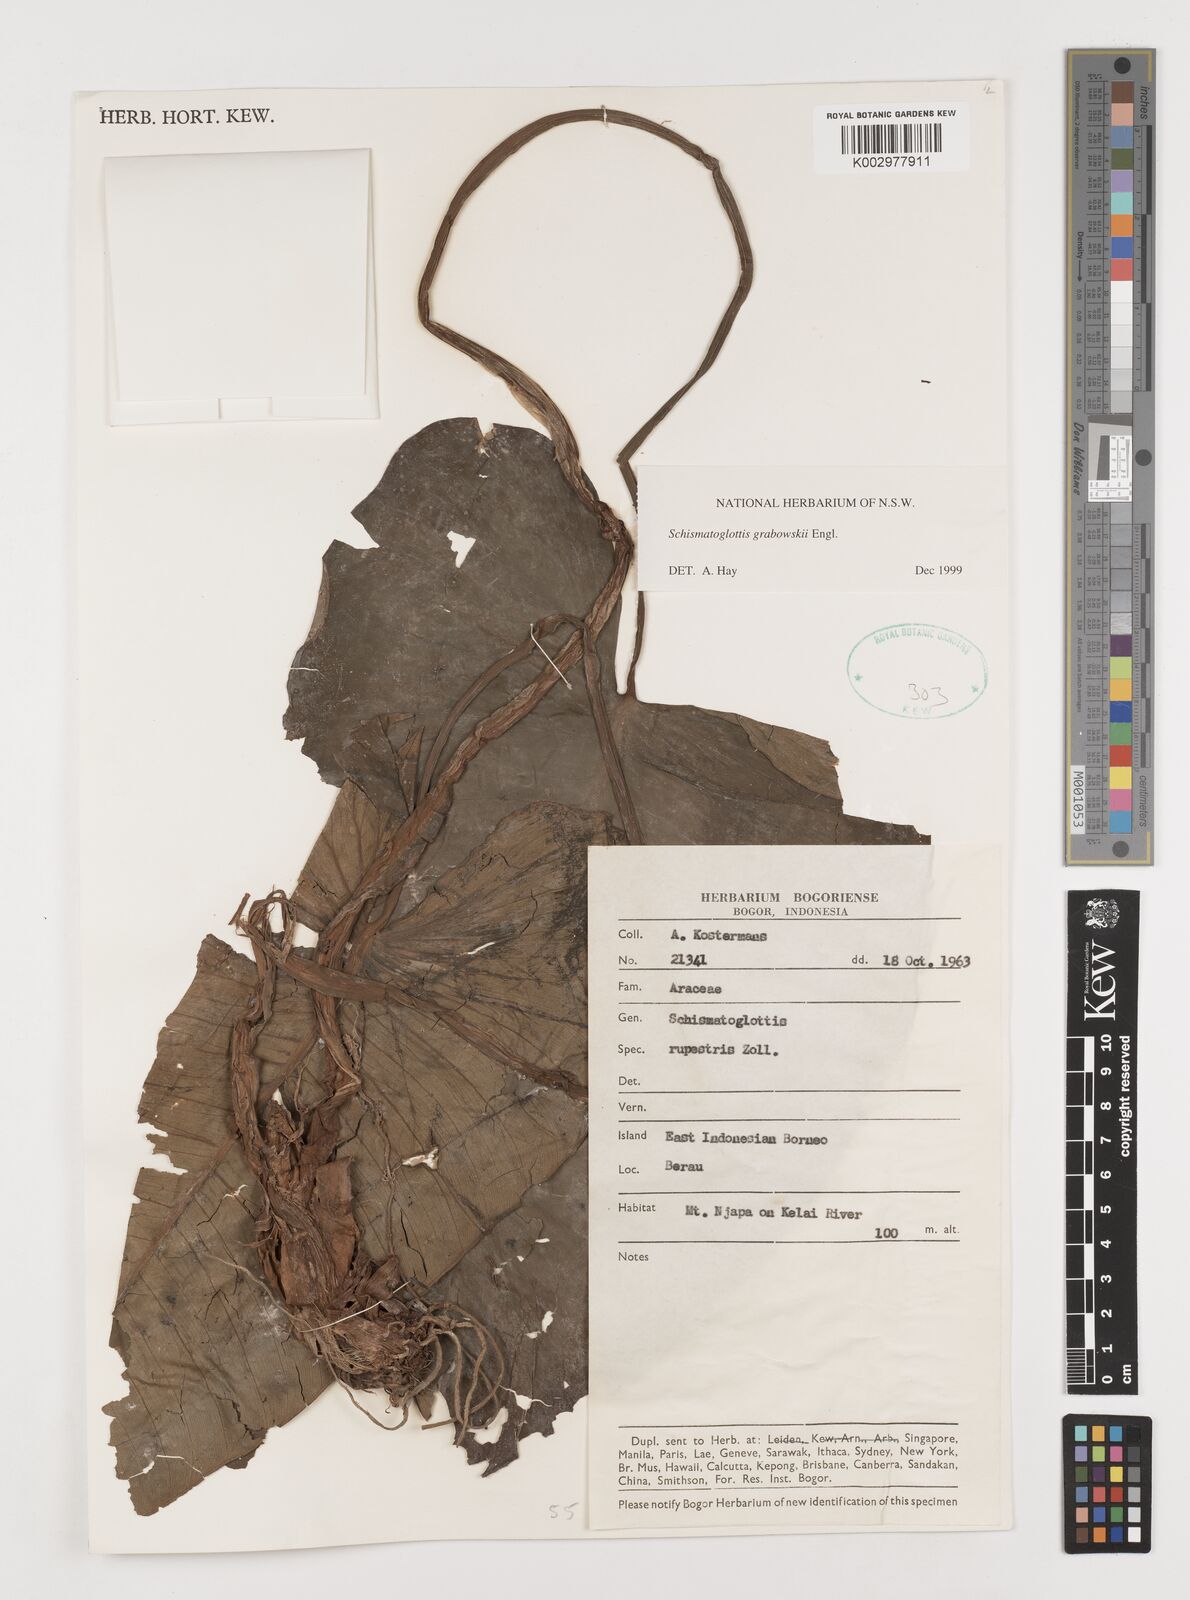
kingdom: Plantae
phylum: Tracheophyta
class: Liliopsida
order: Alismatales
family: Araceae
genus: Schismatoglottis
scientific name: Schismatoglottis grabowskii
